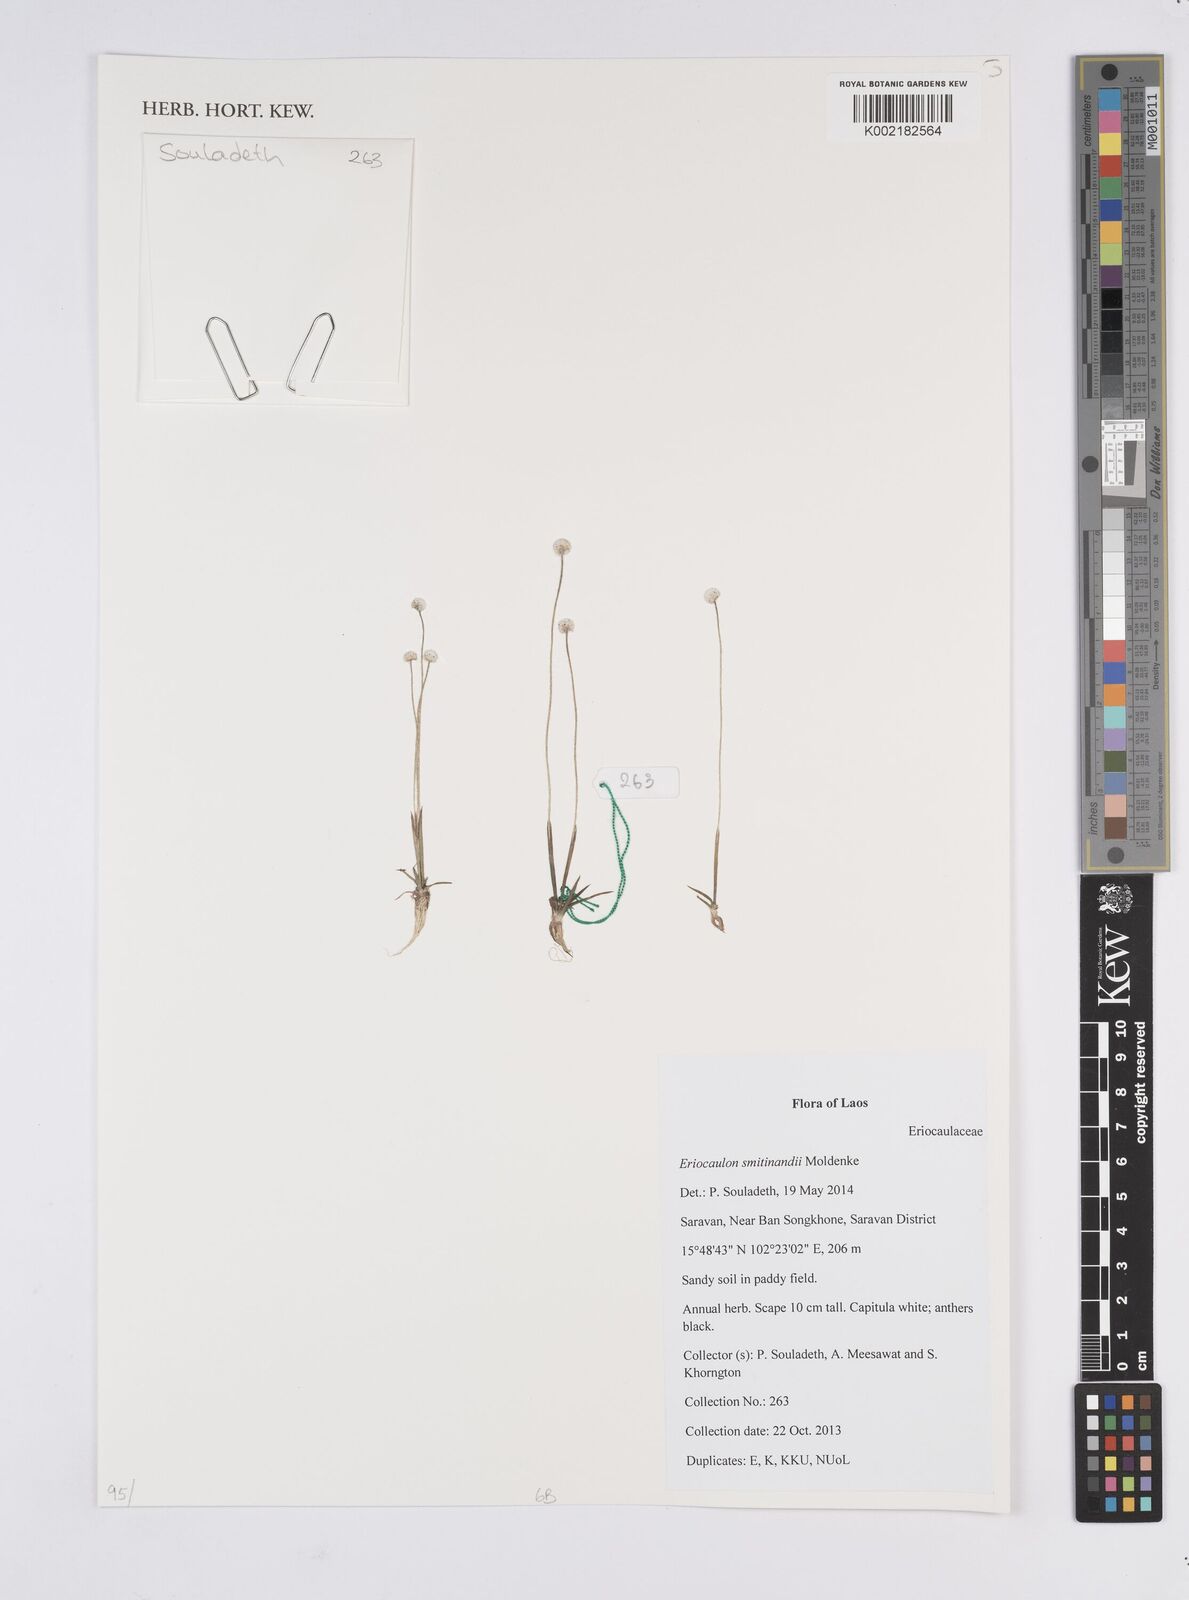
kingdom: Plantae
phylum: Tracheophyta
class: Liliopsida
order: Poales
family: Eriocaulaceae
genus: Eriocaulon
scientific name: Eriocaulon smitinandii
